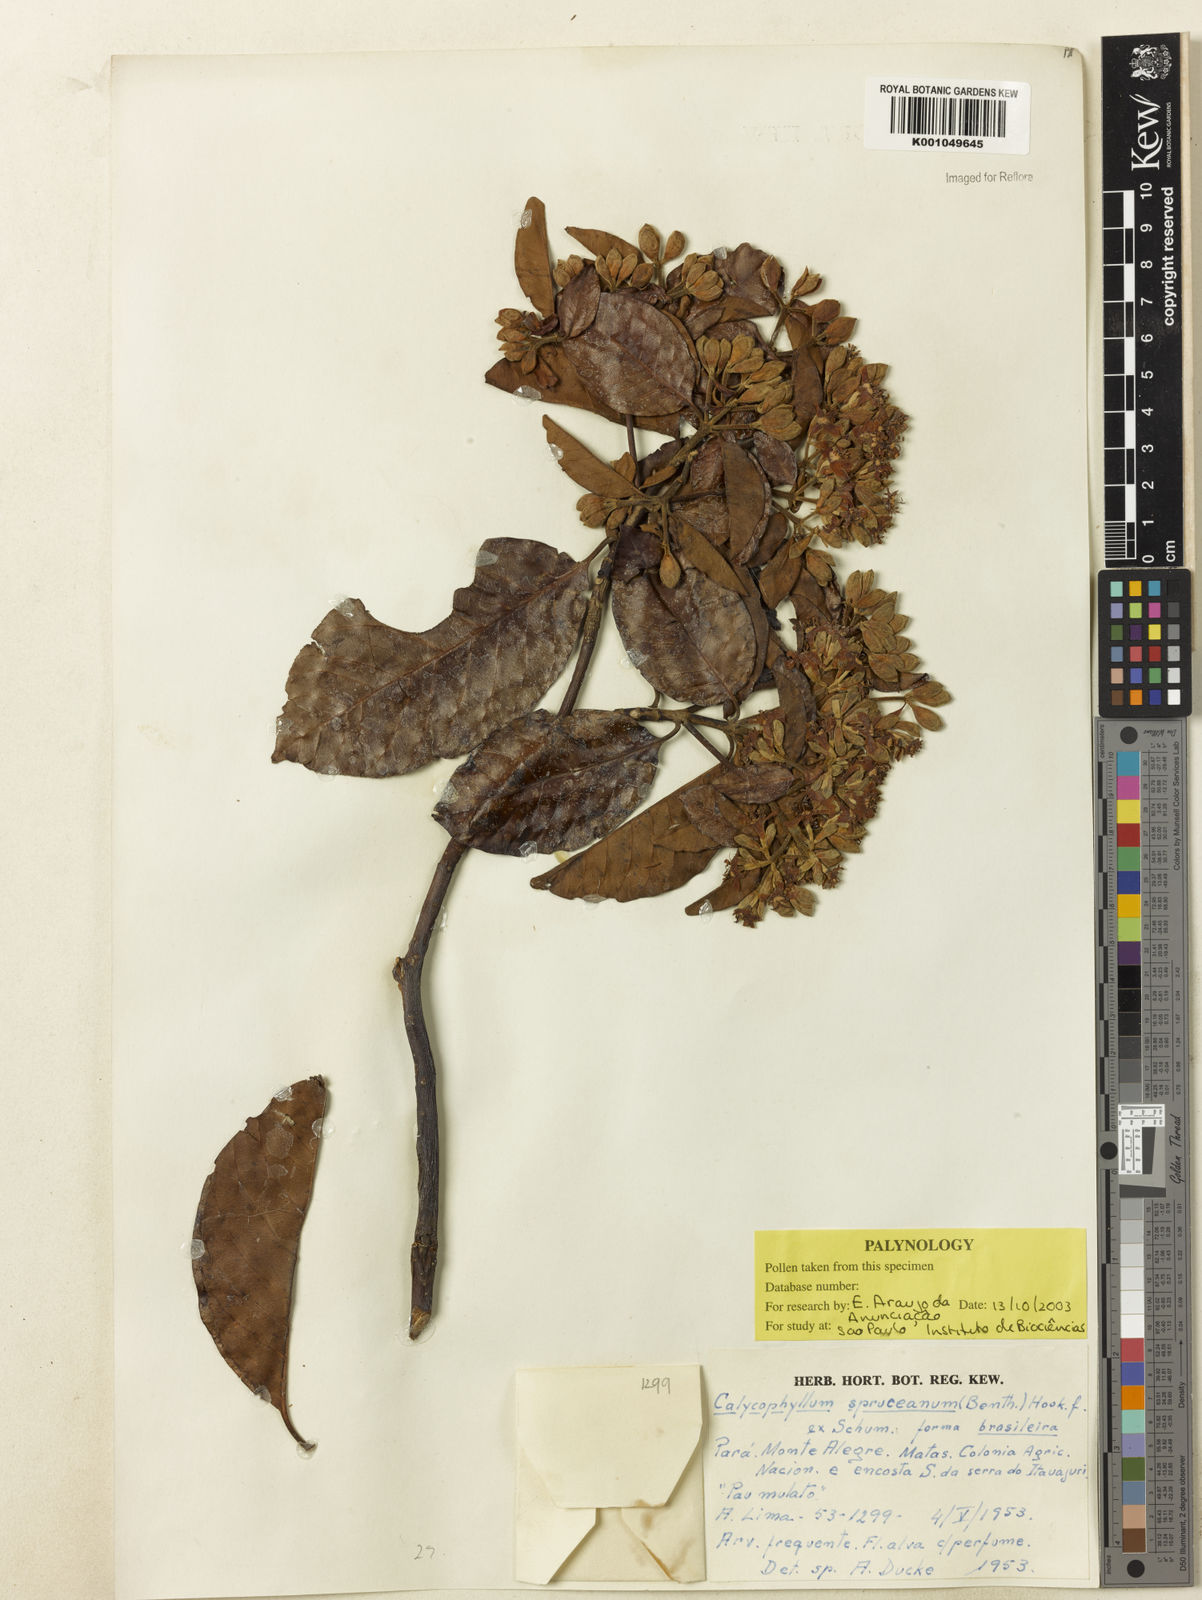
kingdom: Plantae
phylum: Tracheophyta
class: Magnoliopsida
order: Gentianales
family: Rubiaceae
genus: Calycophyllum
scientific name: Calycophyllum spruceanum
